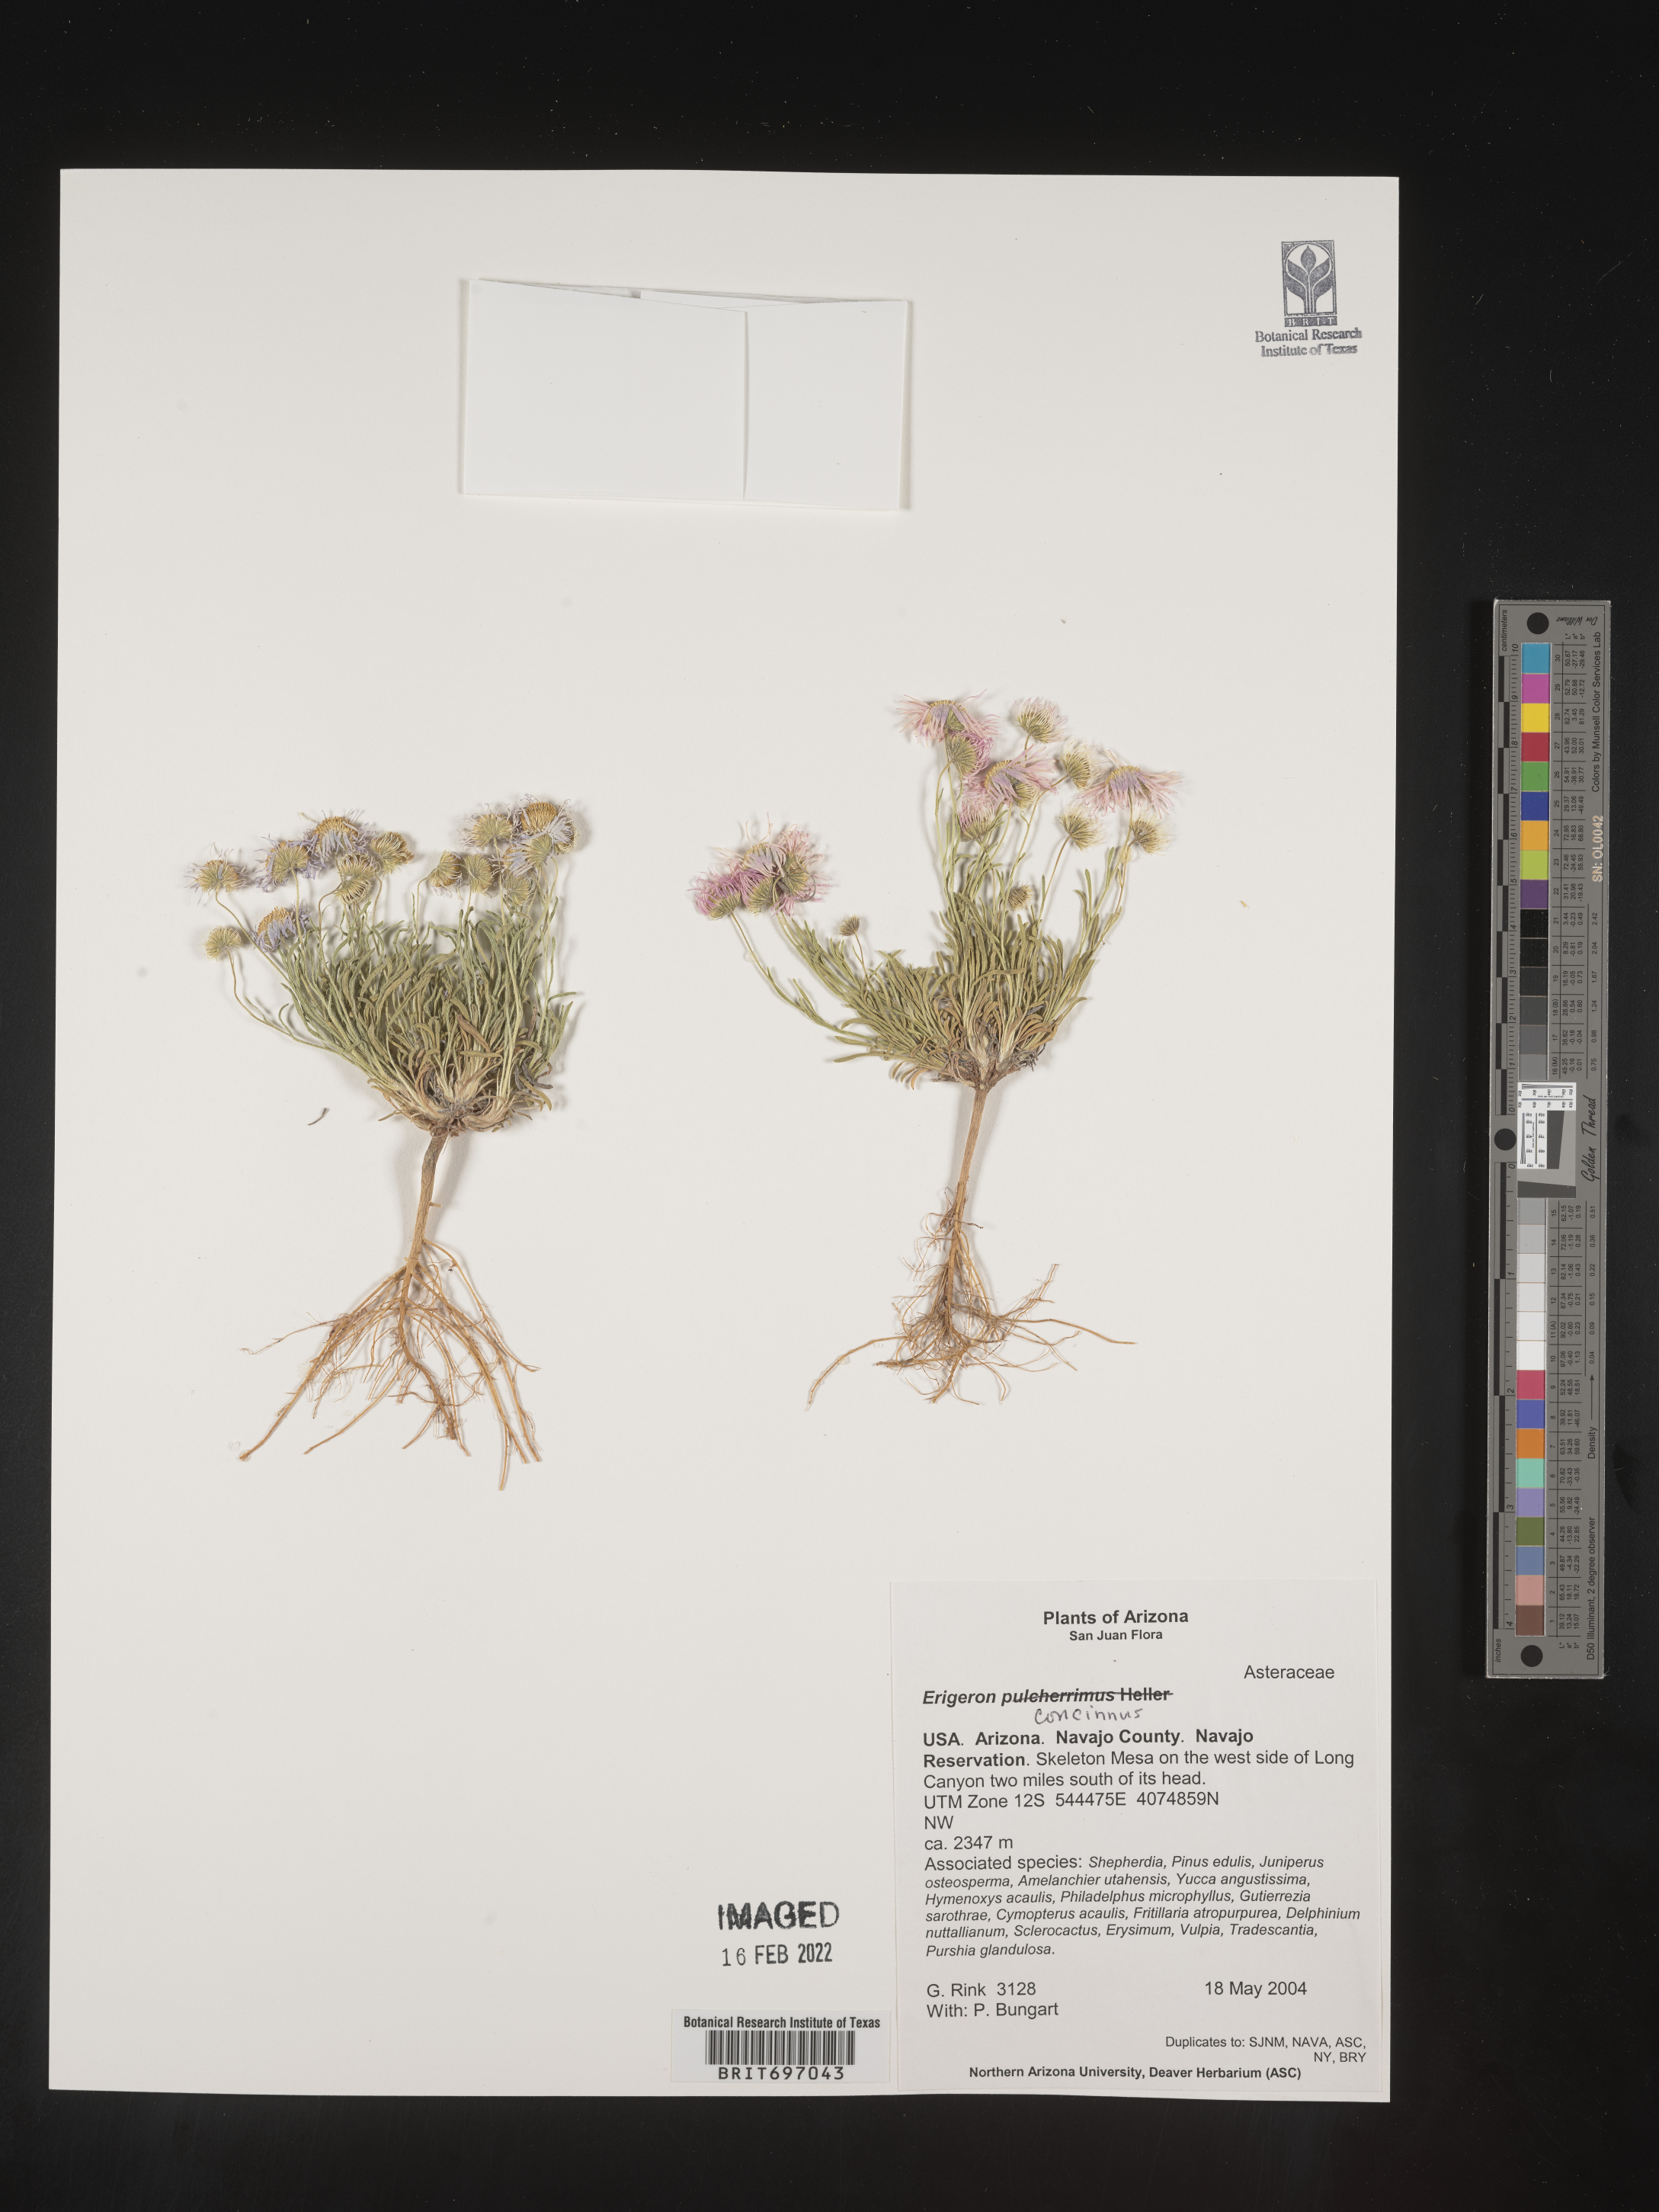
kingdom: Plantae
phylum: Tracheophyta
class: Magnoliopsida
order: Asterales
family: Asteraceae
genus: Erigeron
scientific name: Erigeron concinnus
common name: Navajo fleabane
